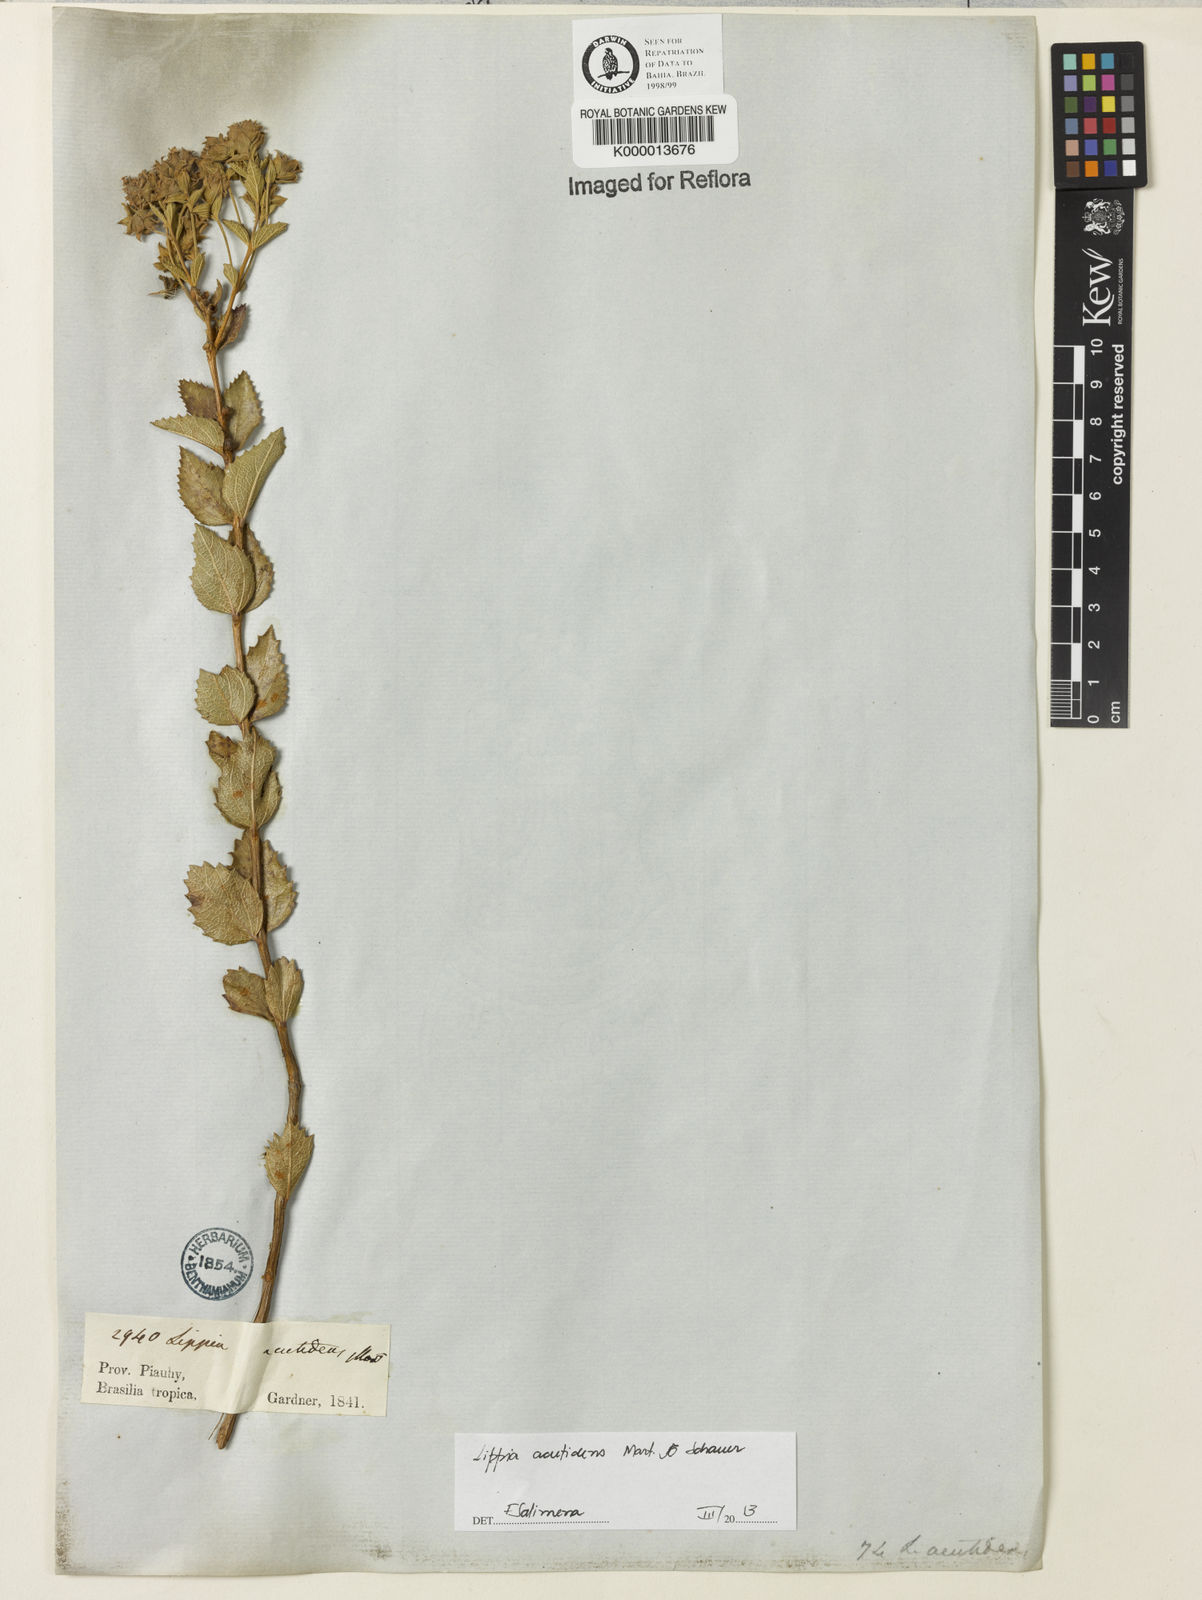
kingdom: Plantae
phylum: Tracheophyta
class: Magnoliopsida
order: Lamiales
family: Verbenaceae
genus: Lippia
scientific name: Lippia acutidens
